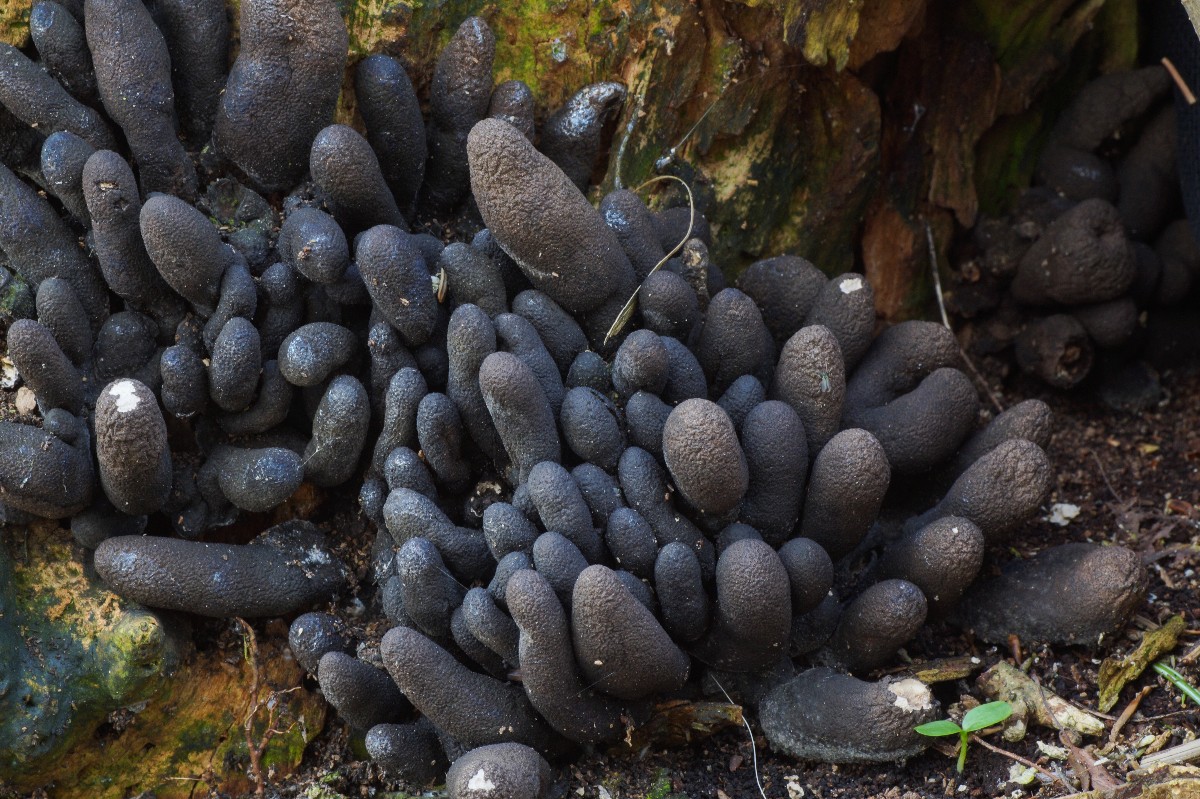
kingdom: Fungi
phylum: Ascomycota
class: Sordariomycetes
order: Xylariales
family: Xylariaceae
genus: Xylaria
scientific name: Xylaria polymorpha
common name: kølle-stødsvamp
